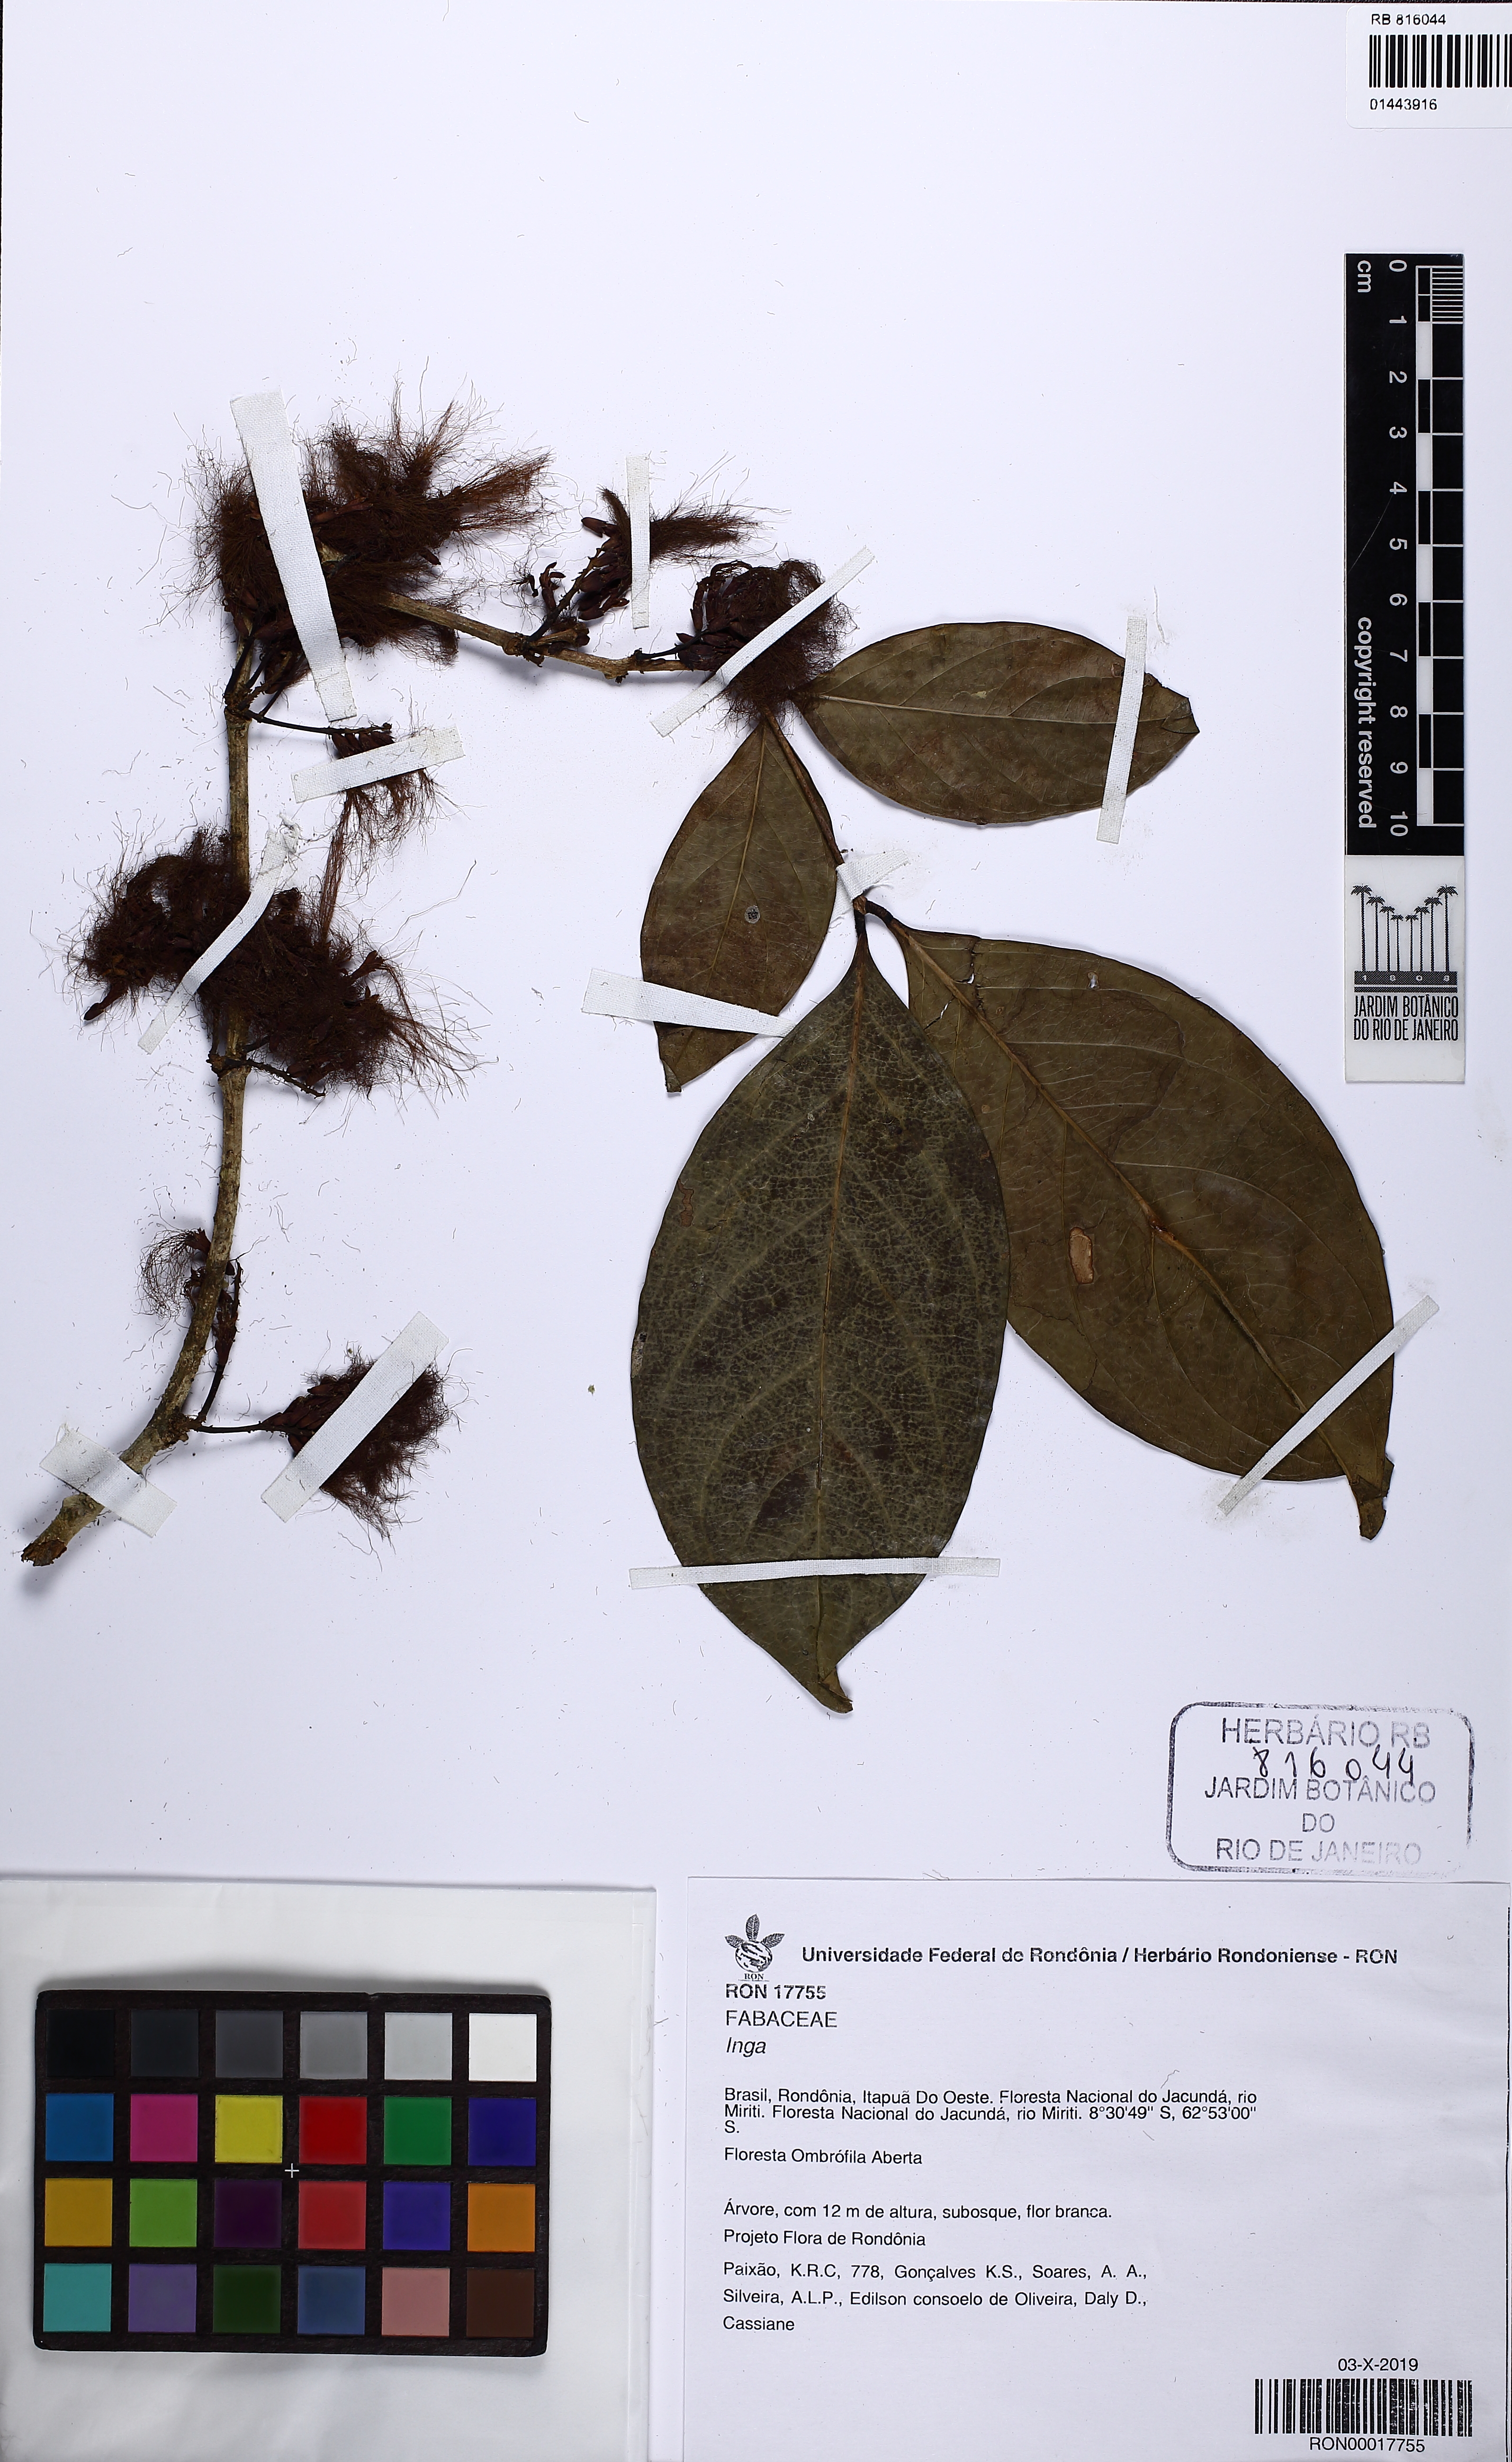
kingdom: Plantae
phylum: Tracheophyta
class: Magnoliopsida
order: Fabales
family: Fabaceae
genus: Inga
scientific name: Inga
